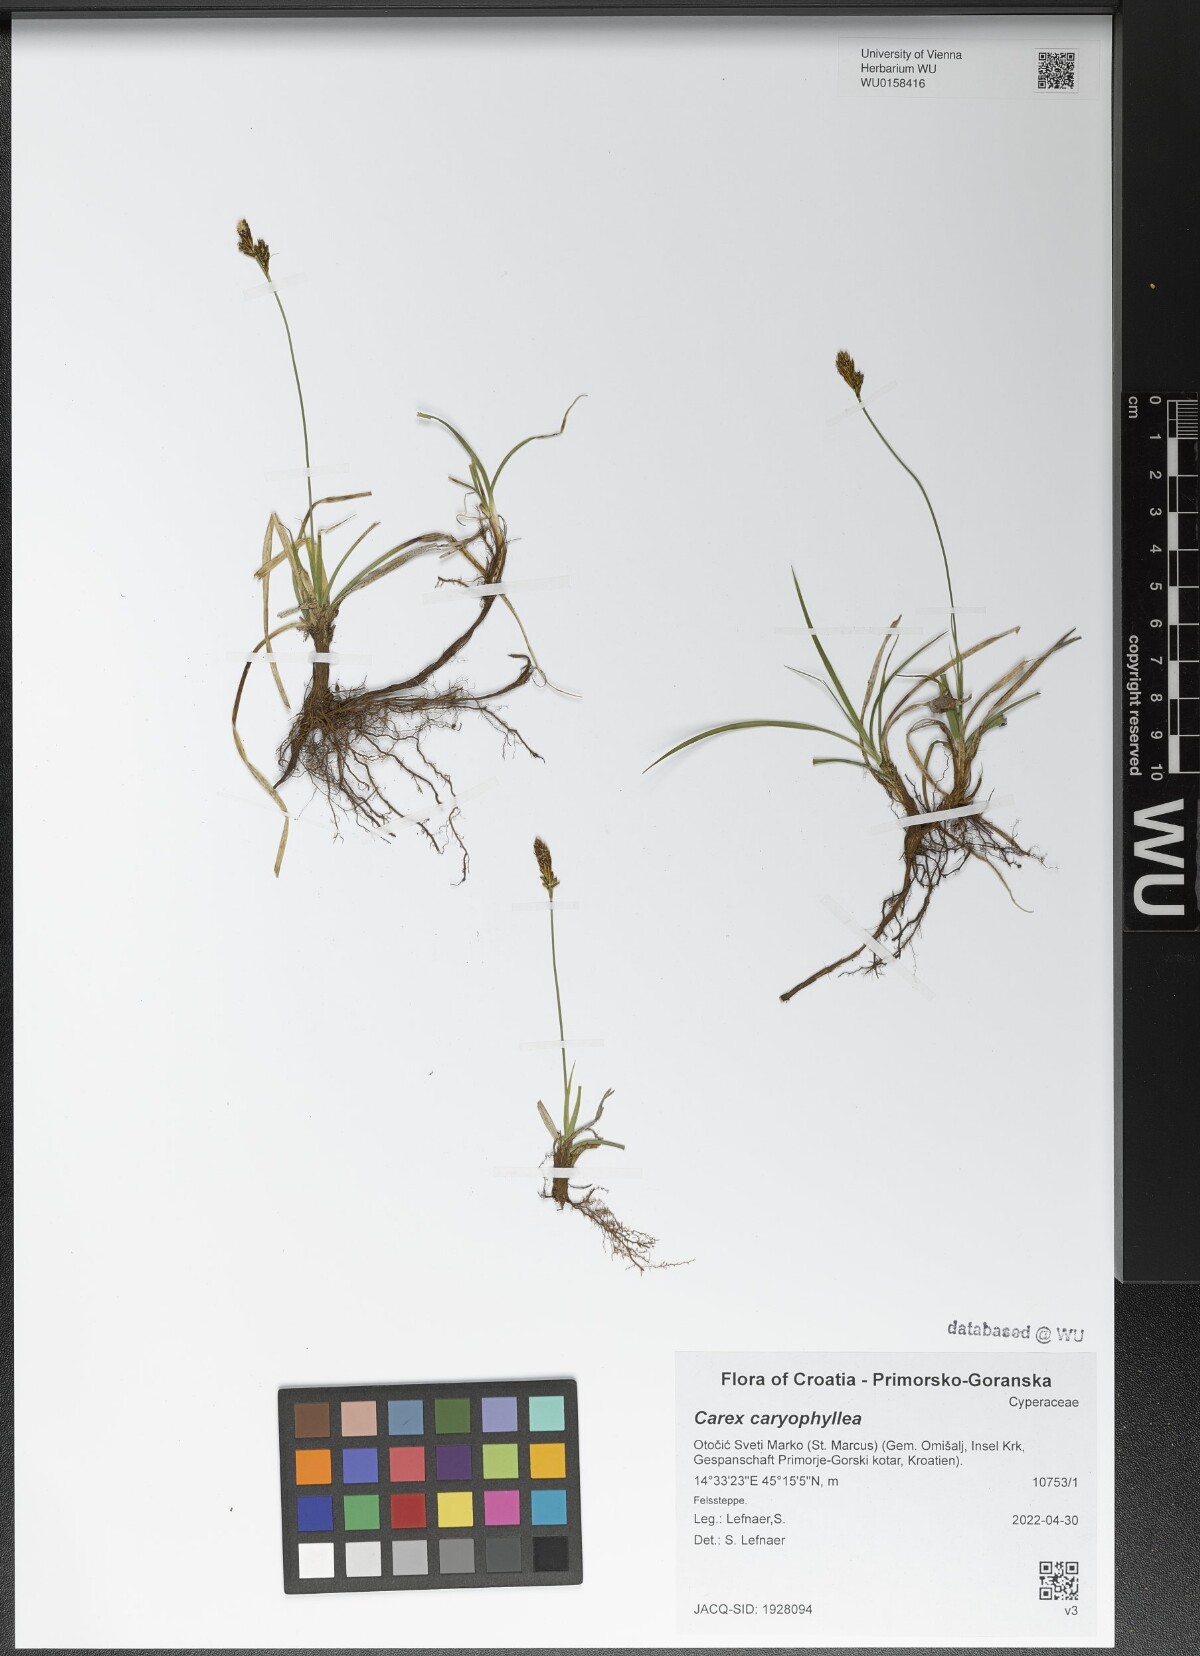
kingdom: Plantae
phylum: Tracheophyta
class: Liliopsida
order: Poales
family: Cyperaceae
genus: Carex
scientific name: Carex caryophyllea
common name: Spring sedge
